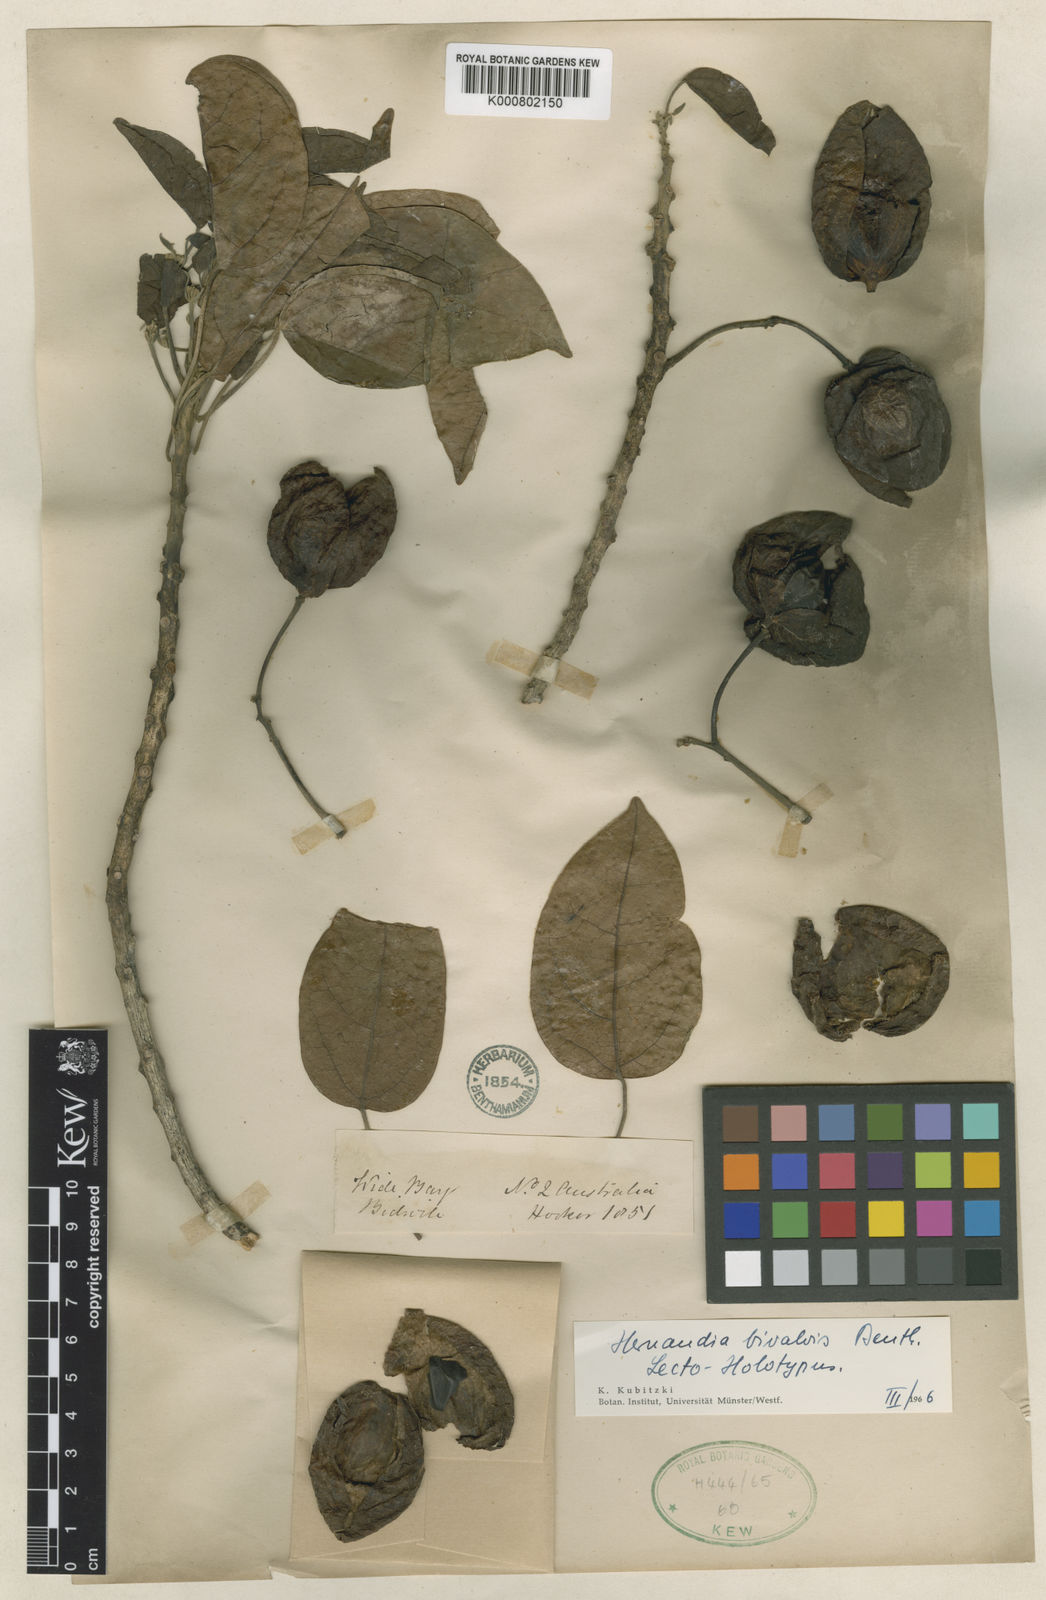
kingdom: Plantae
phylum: Tracheophyta
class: Magnoliopsida
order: Laurales
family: Hernandiaceae
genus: Hernandia
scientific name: Hernandia bivalvis
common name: Greasenut
